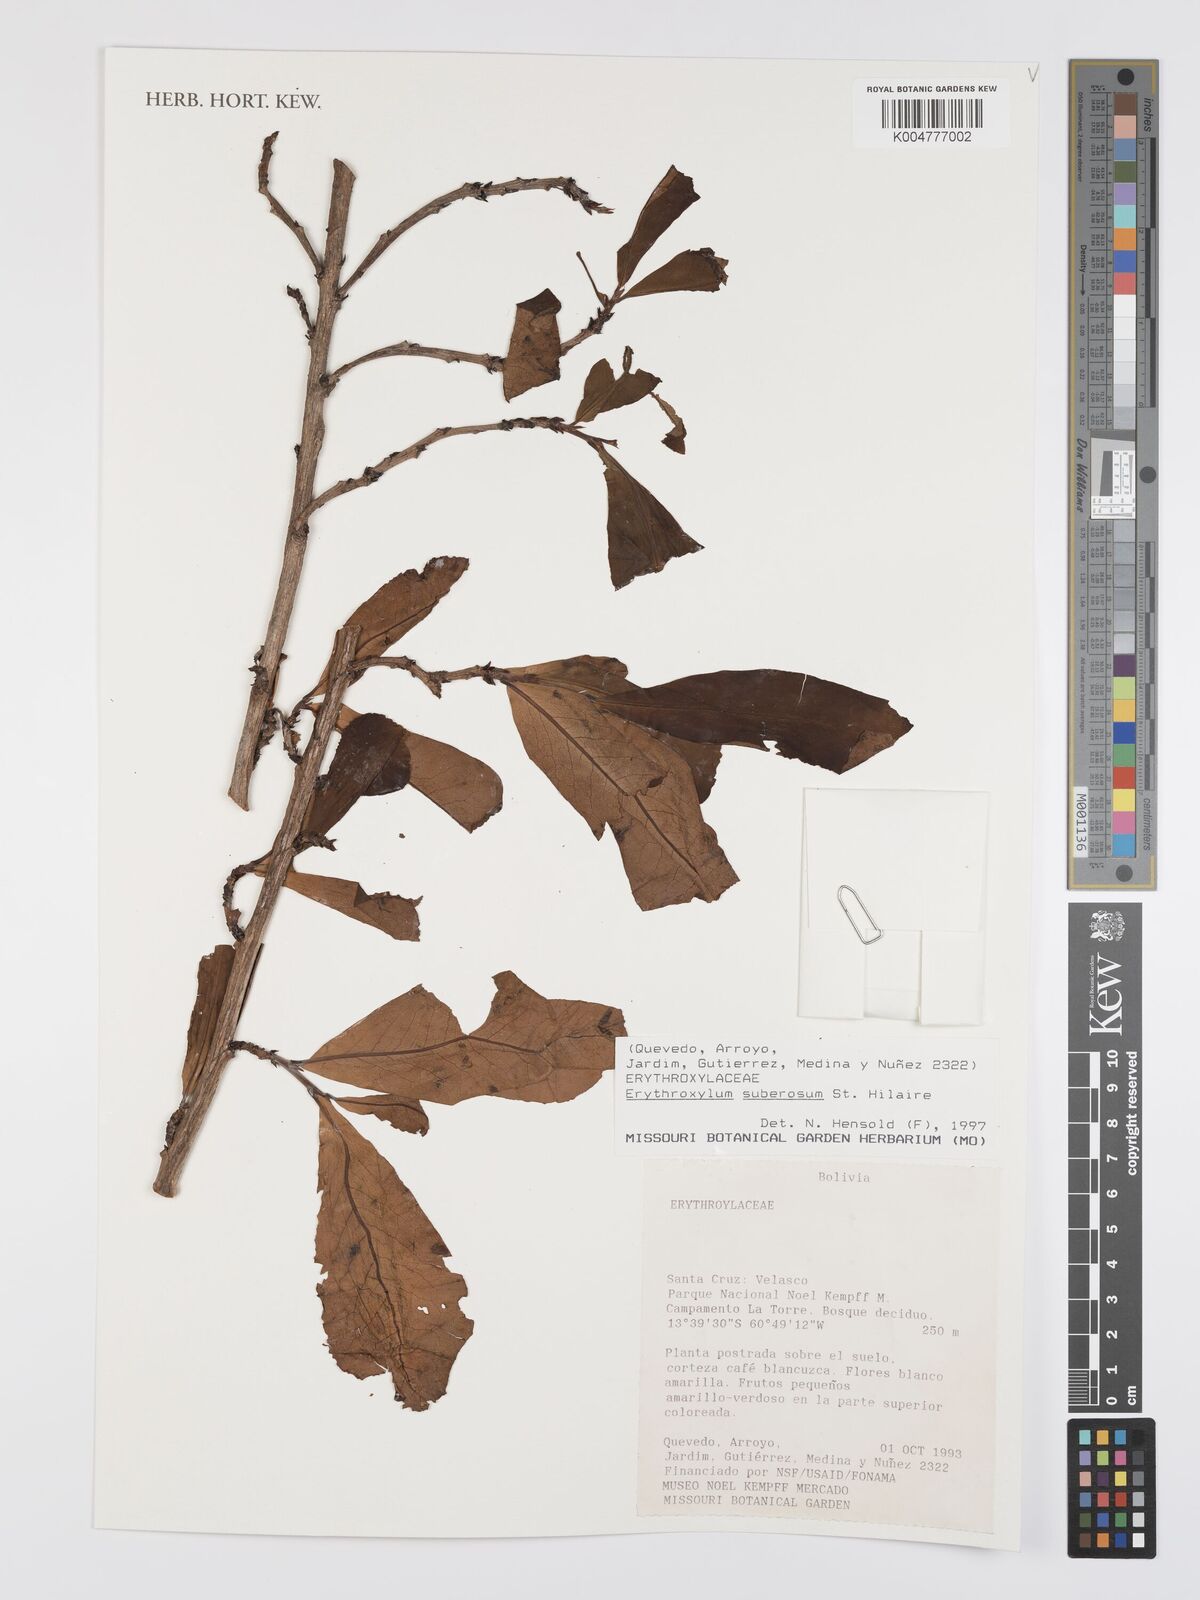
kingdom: Plantae
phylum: Tracheophyta
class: Magnoliopsida
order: Malpighiales
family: Erythroxylaceae
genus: Erythroxylum
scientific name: Erythroxylum suberosum
